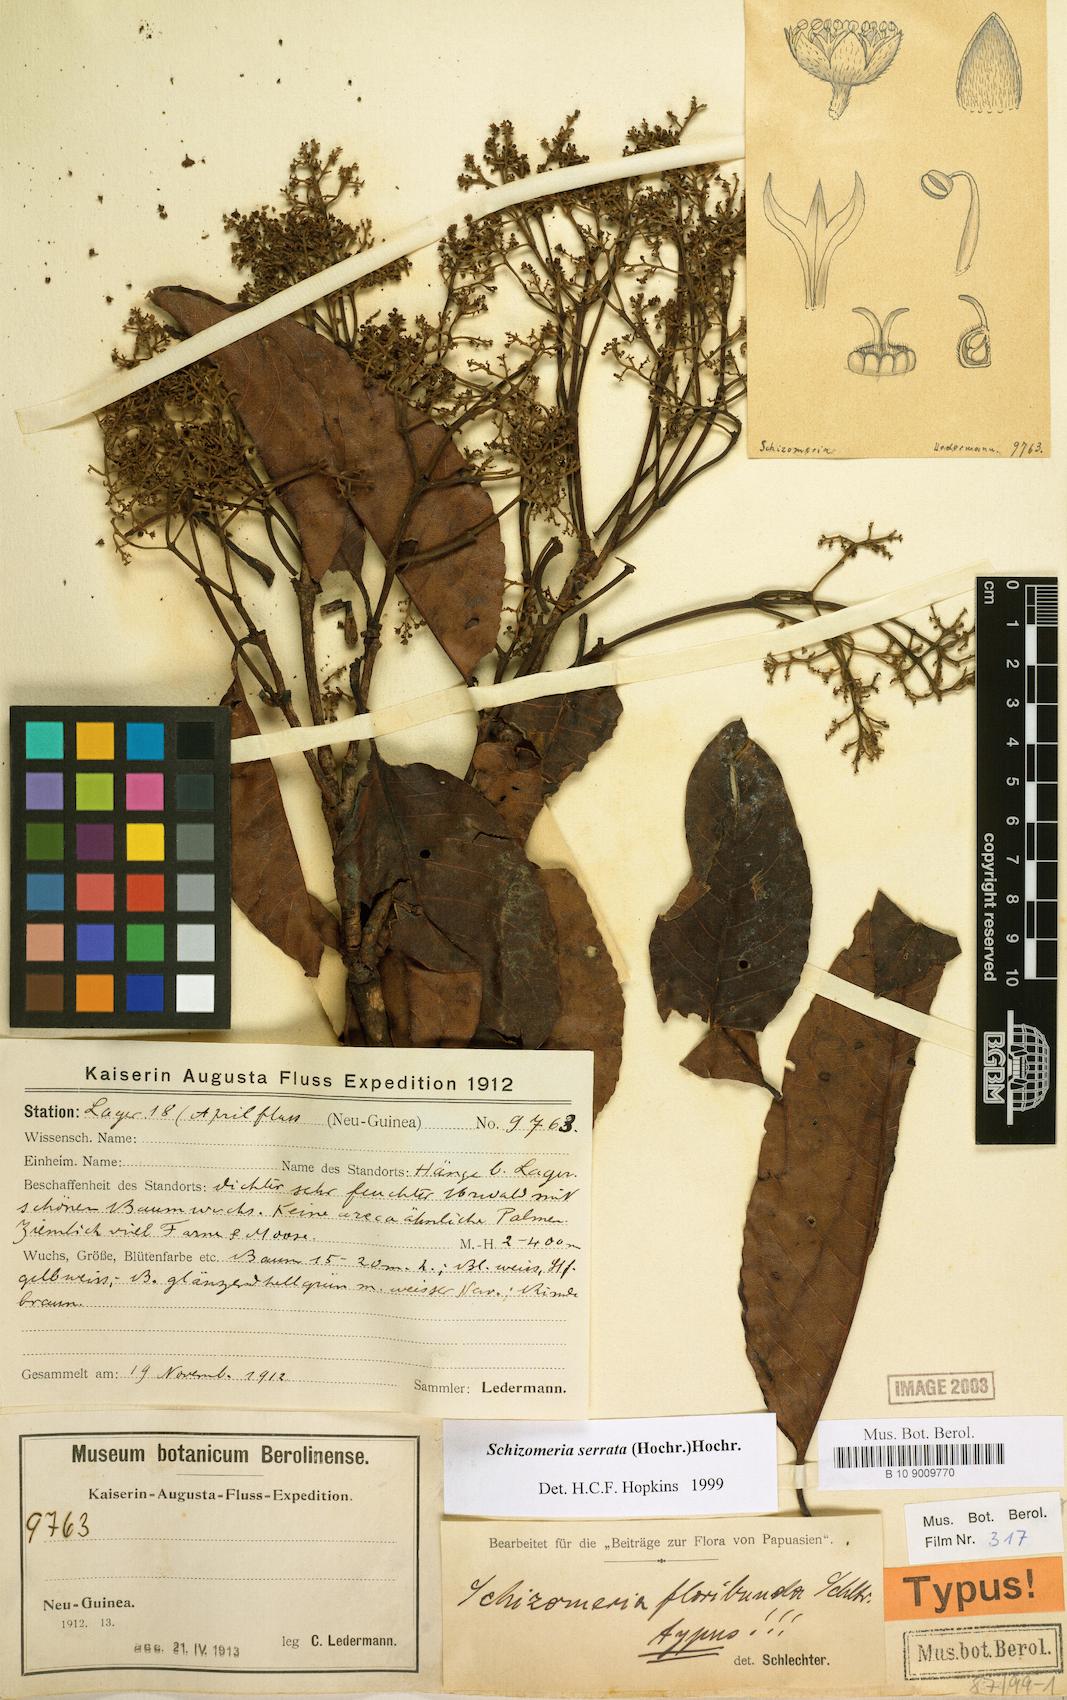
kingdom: Plantae
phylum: Tracheophyta
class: Magnoliopsida
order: Oxalidales
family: Cunoniaceae
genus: Schizomeria
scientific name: Schizomeria serrata
